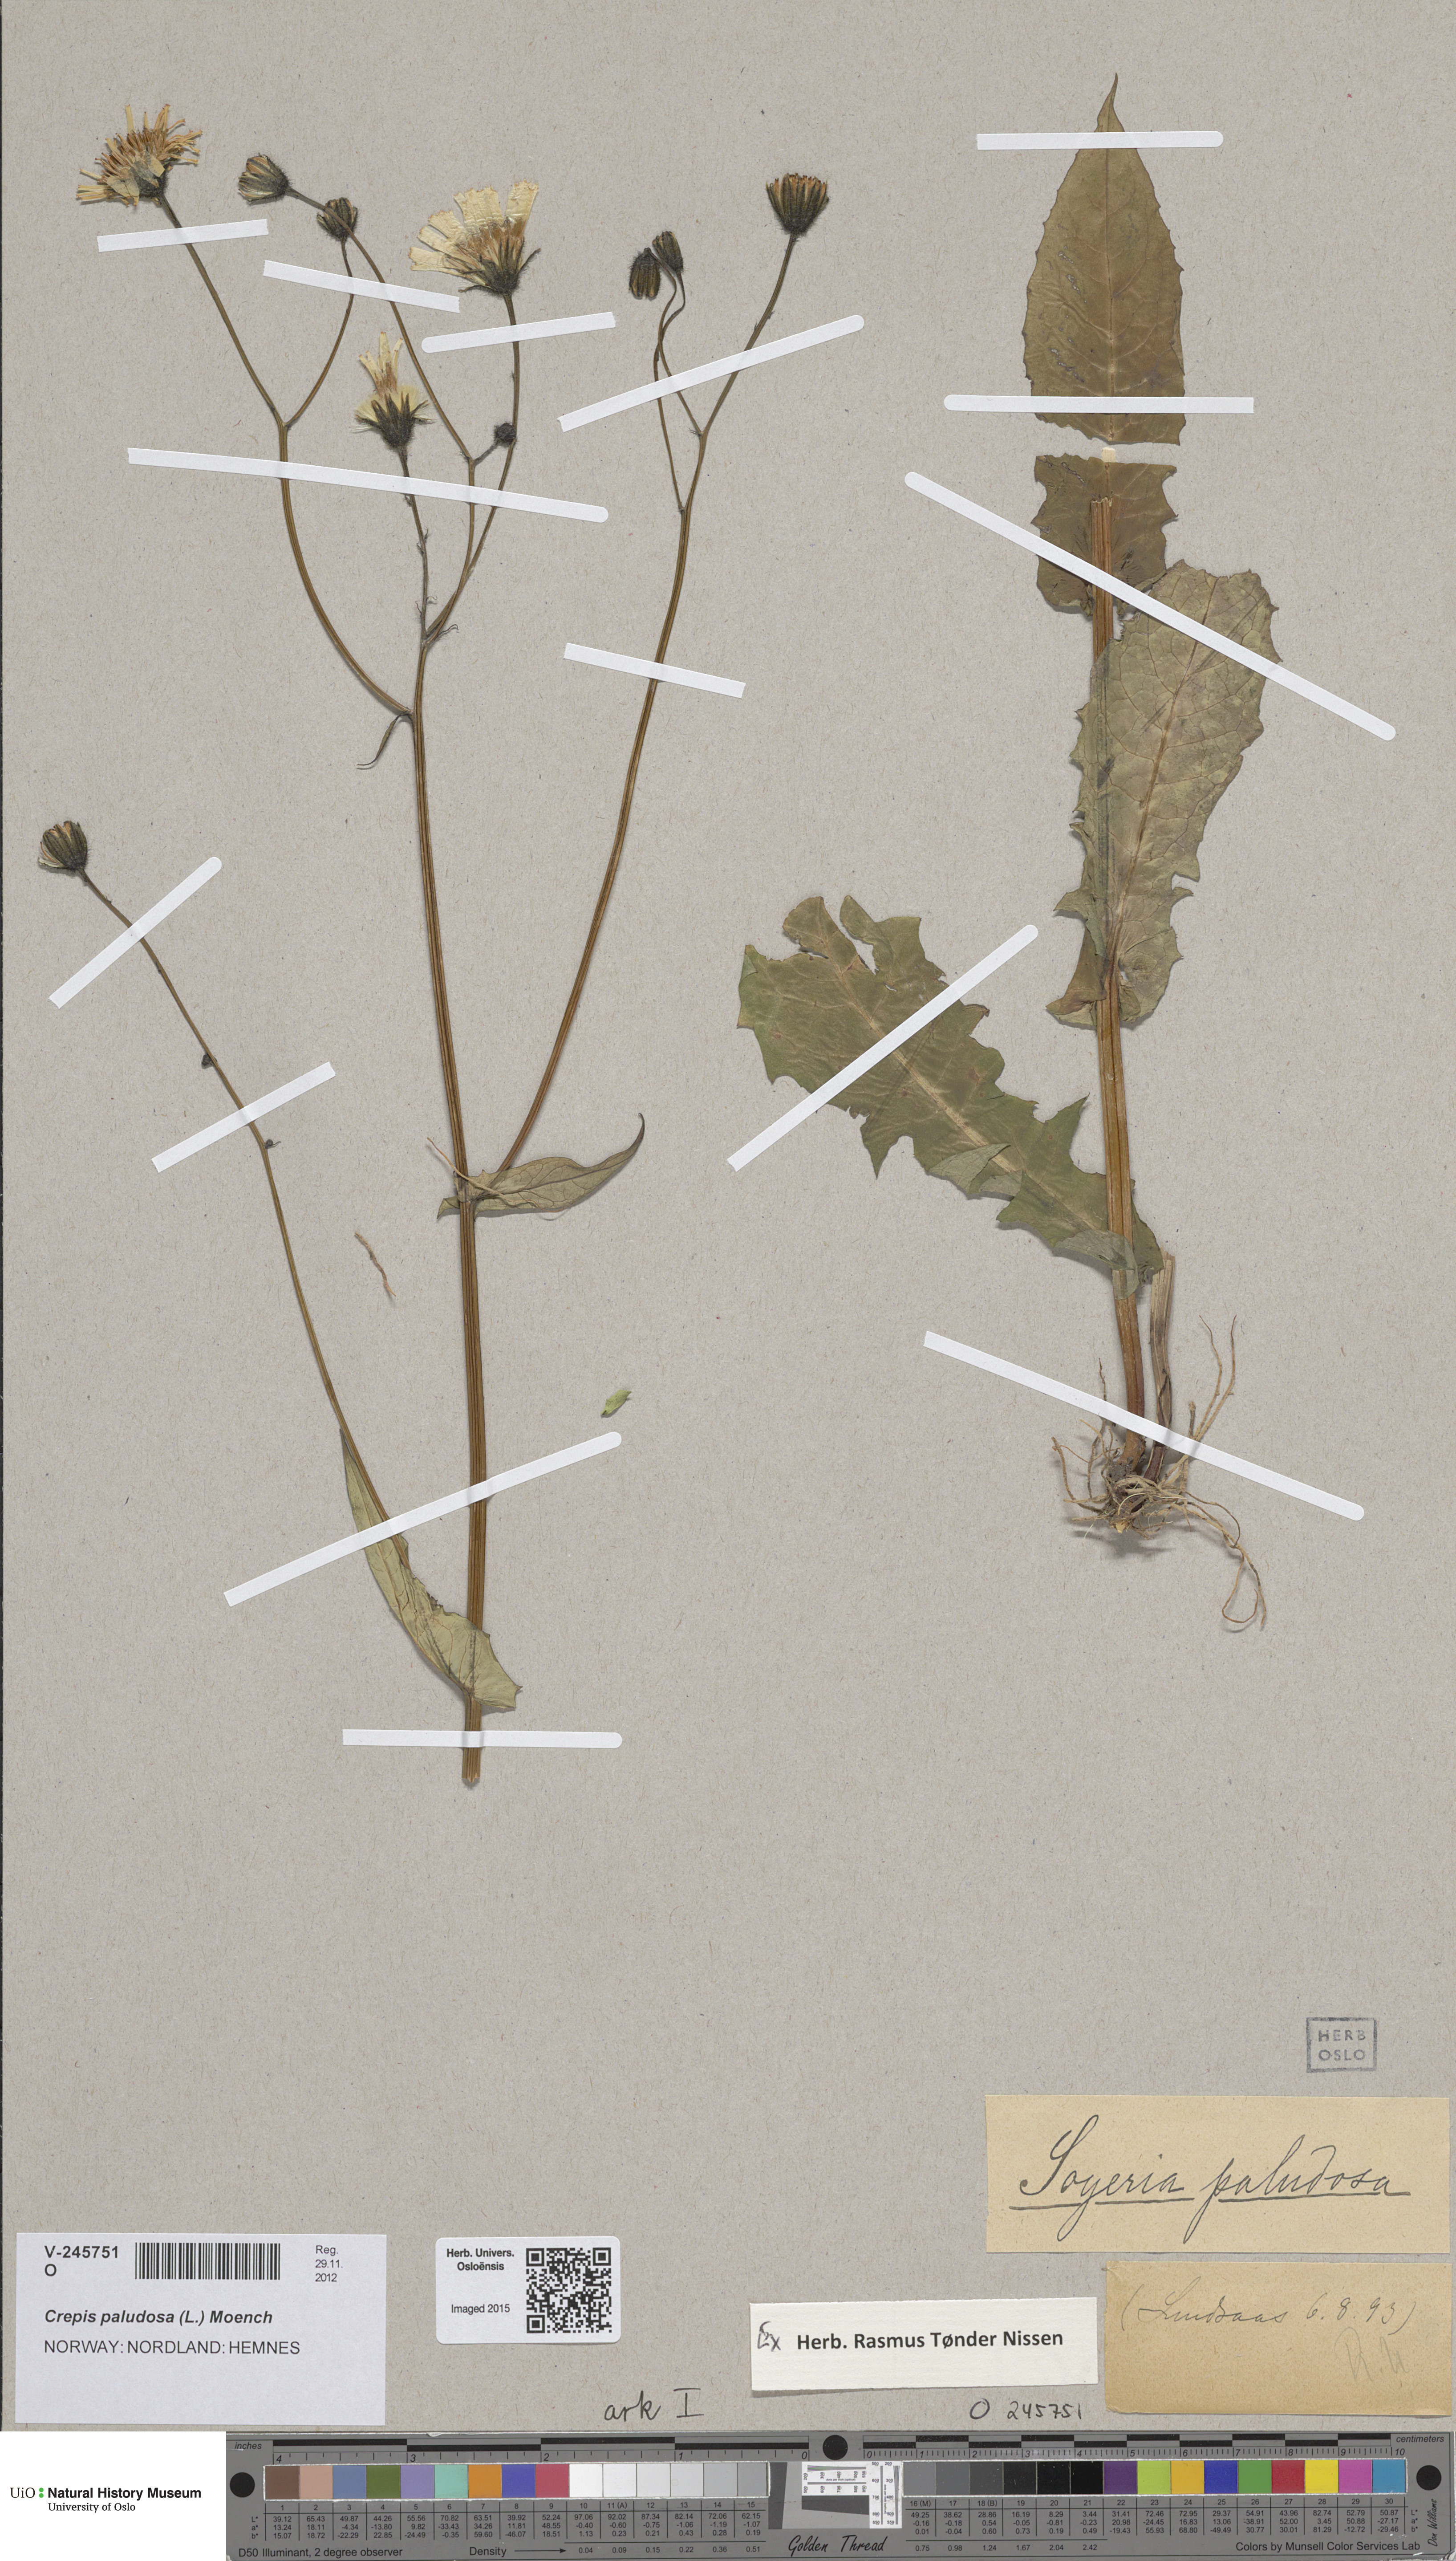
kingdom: Plantae
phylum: Tracheophyta
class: Magnoliopsida
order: Asterales
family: Asteraceae
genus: Crepis
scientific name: Crepis paludosa
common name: Marsh hawk's-beard
